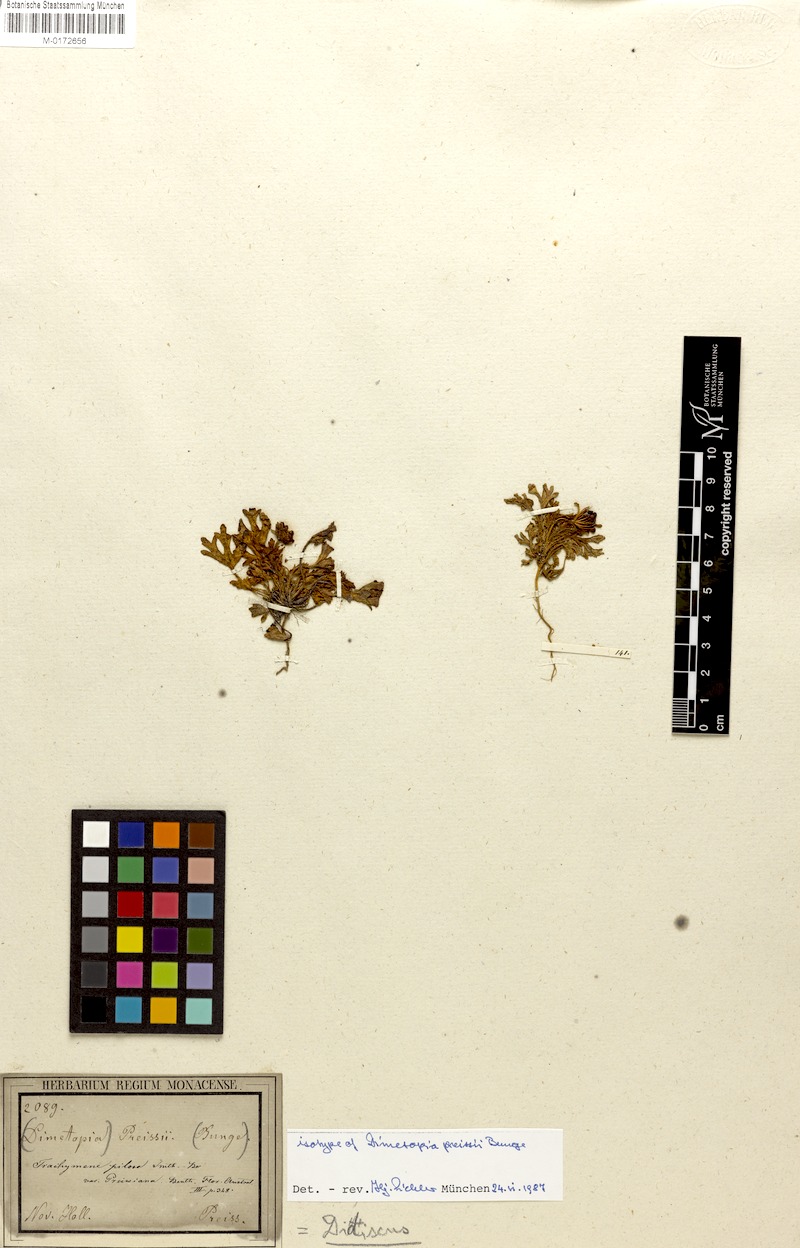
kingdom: Plantae
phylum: Tracheophyta
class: Magnoliopsida
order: Apiales
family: Araliaceae
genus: Trachymene
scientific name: Trachymene pilosa
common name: Dwarf trachymene
